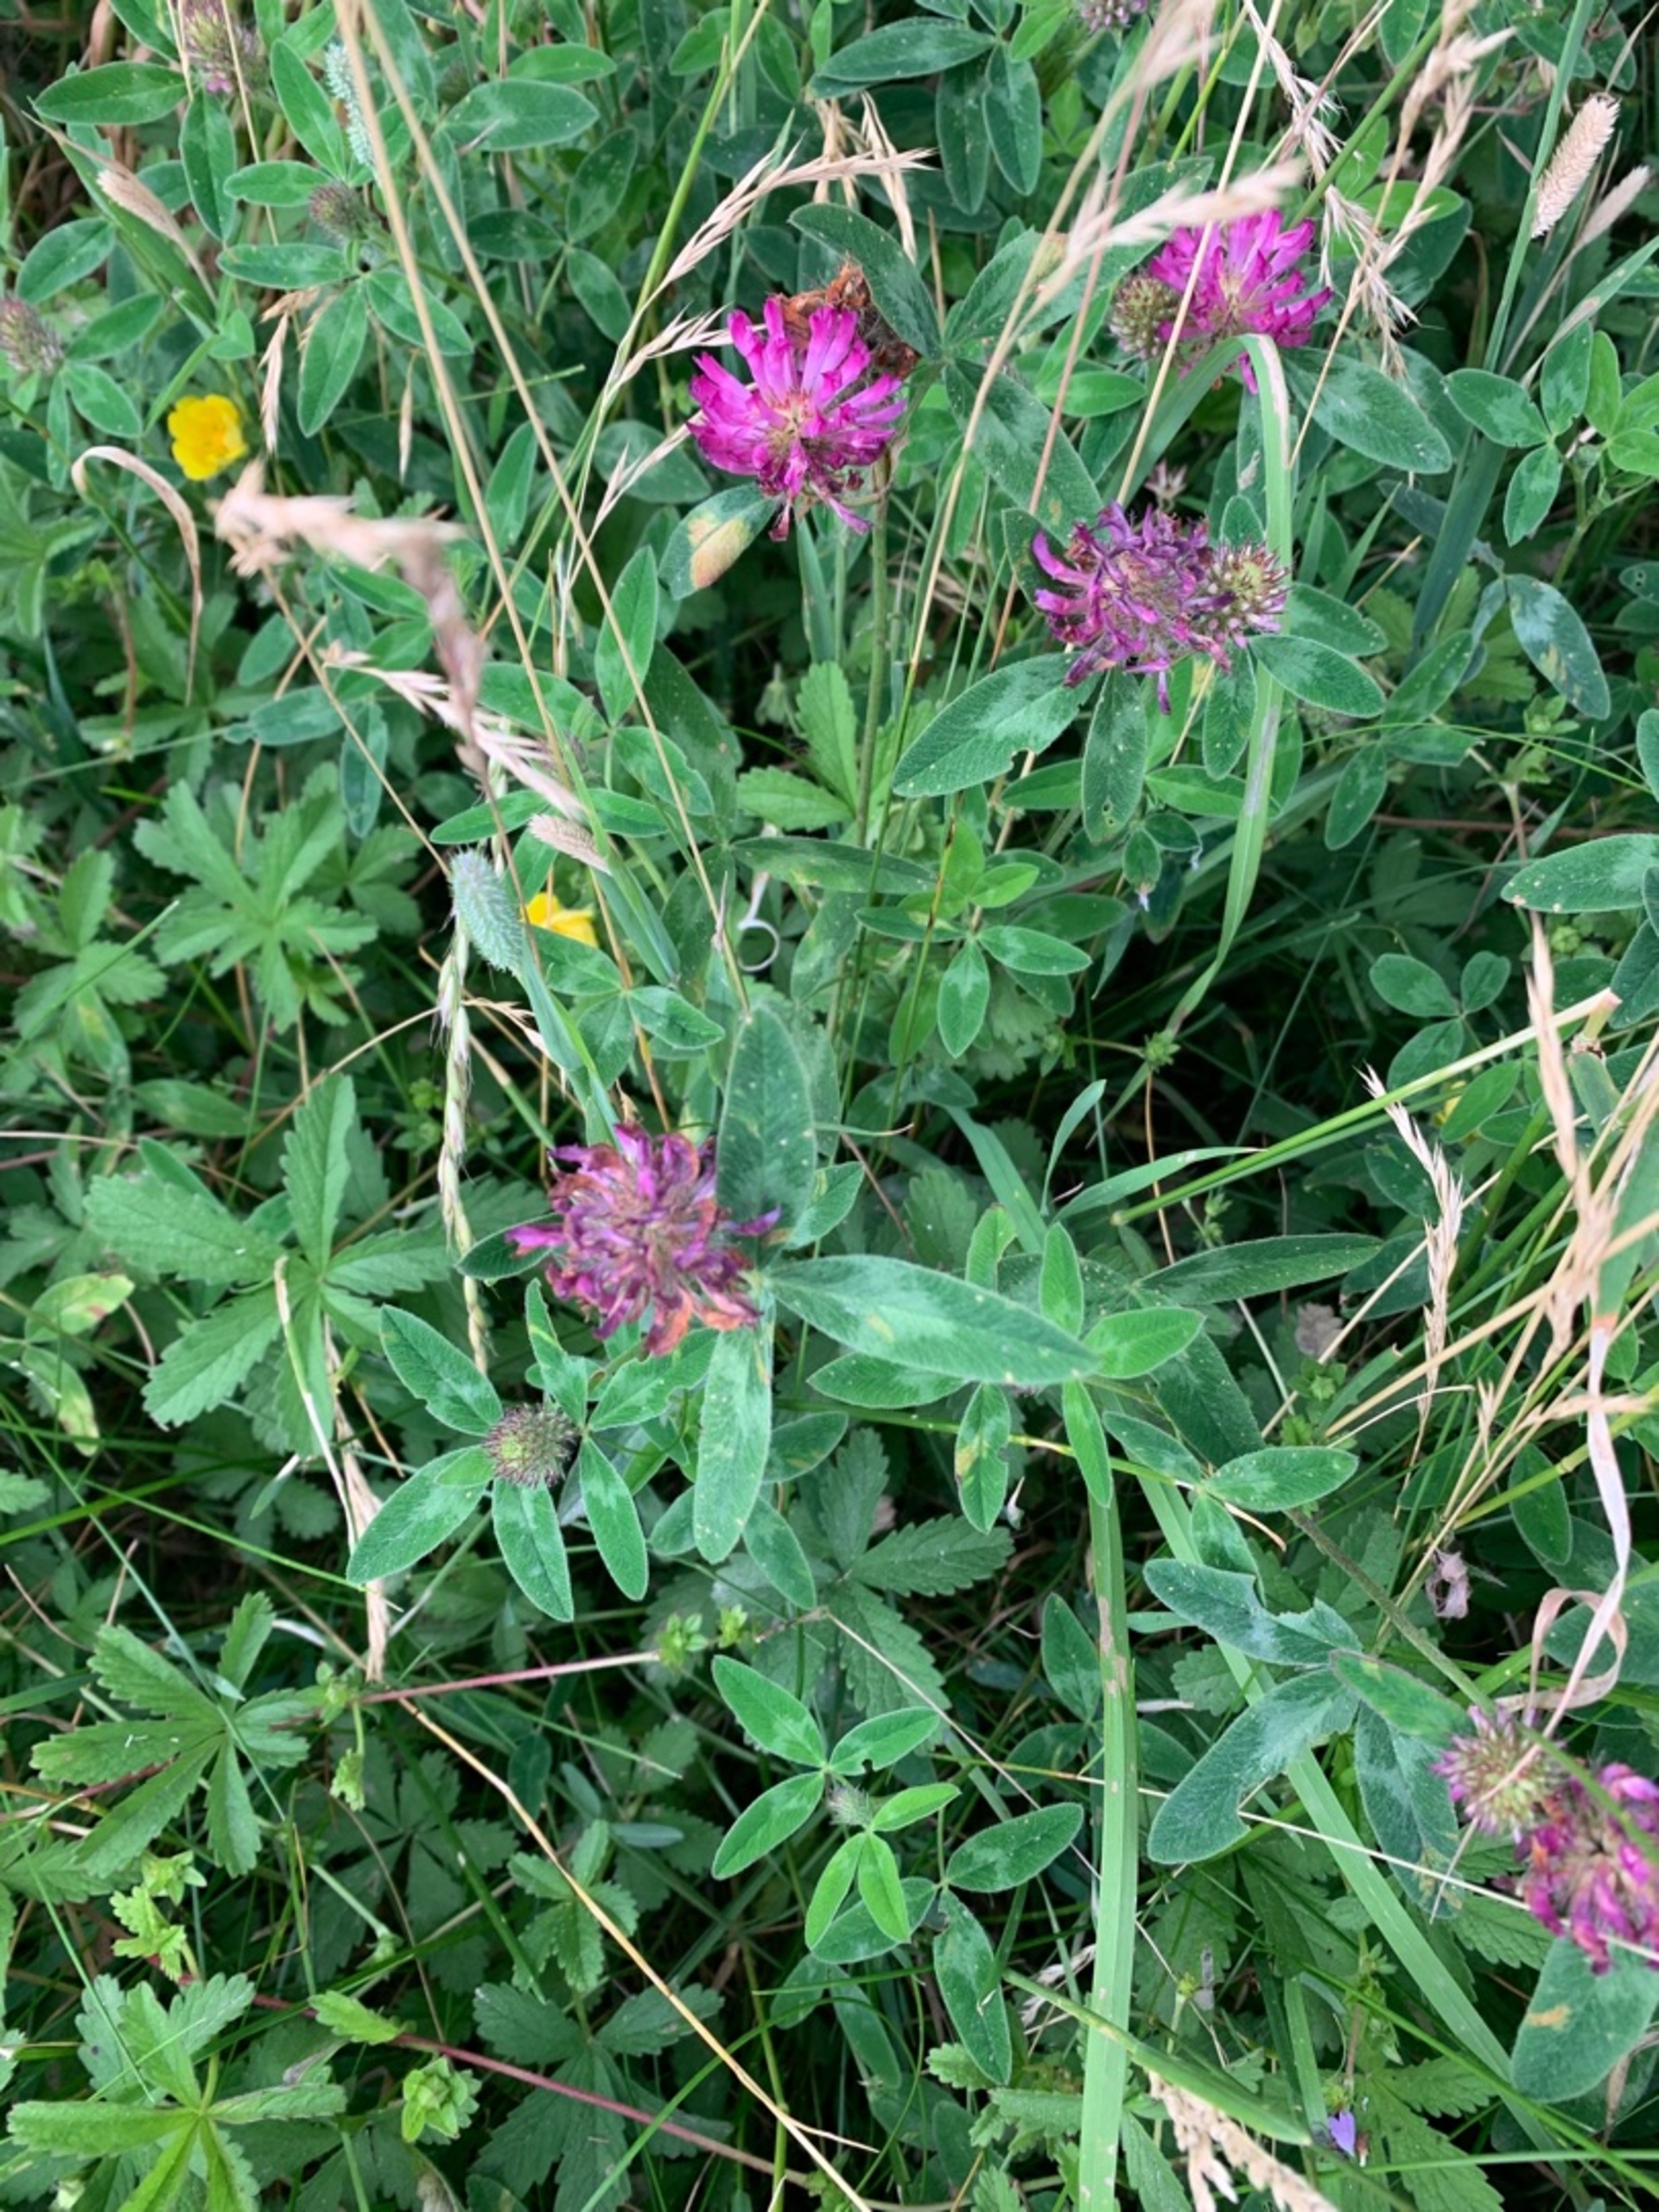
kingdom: Plantae
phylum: Tracheophyta
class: Magnoliopsida
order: Fabales
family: Fabaceae
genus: Trifolium
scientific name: Trifolium medium
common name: Bugtet kløver
